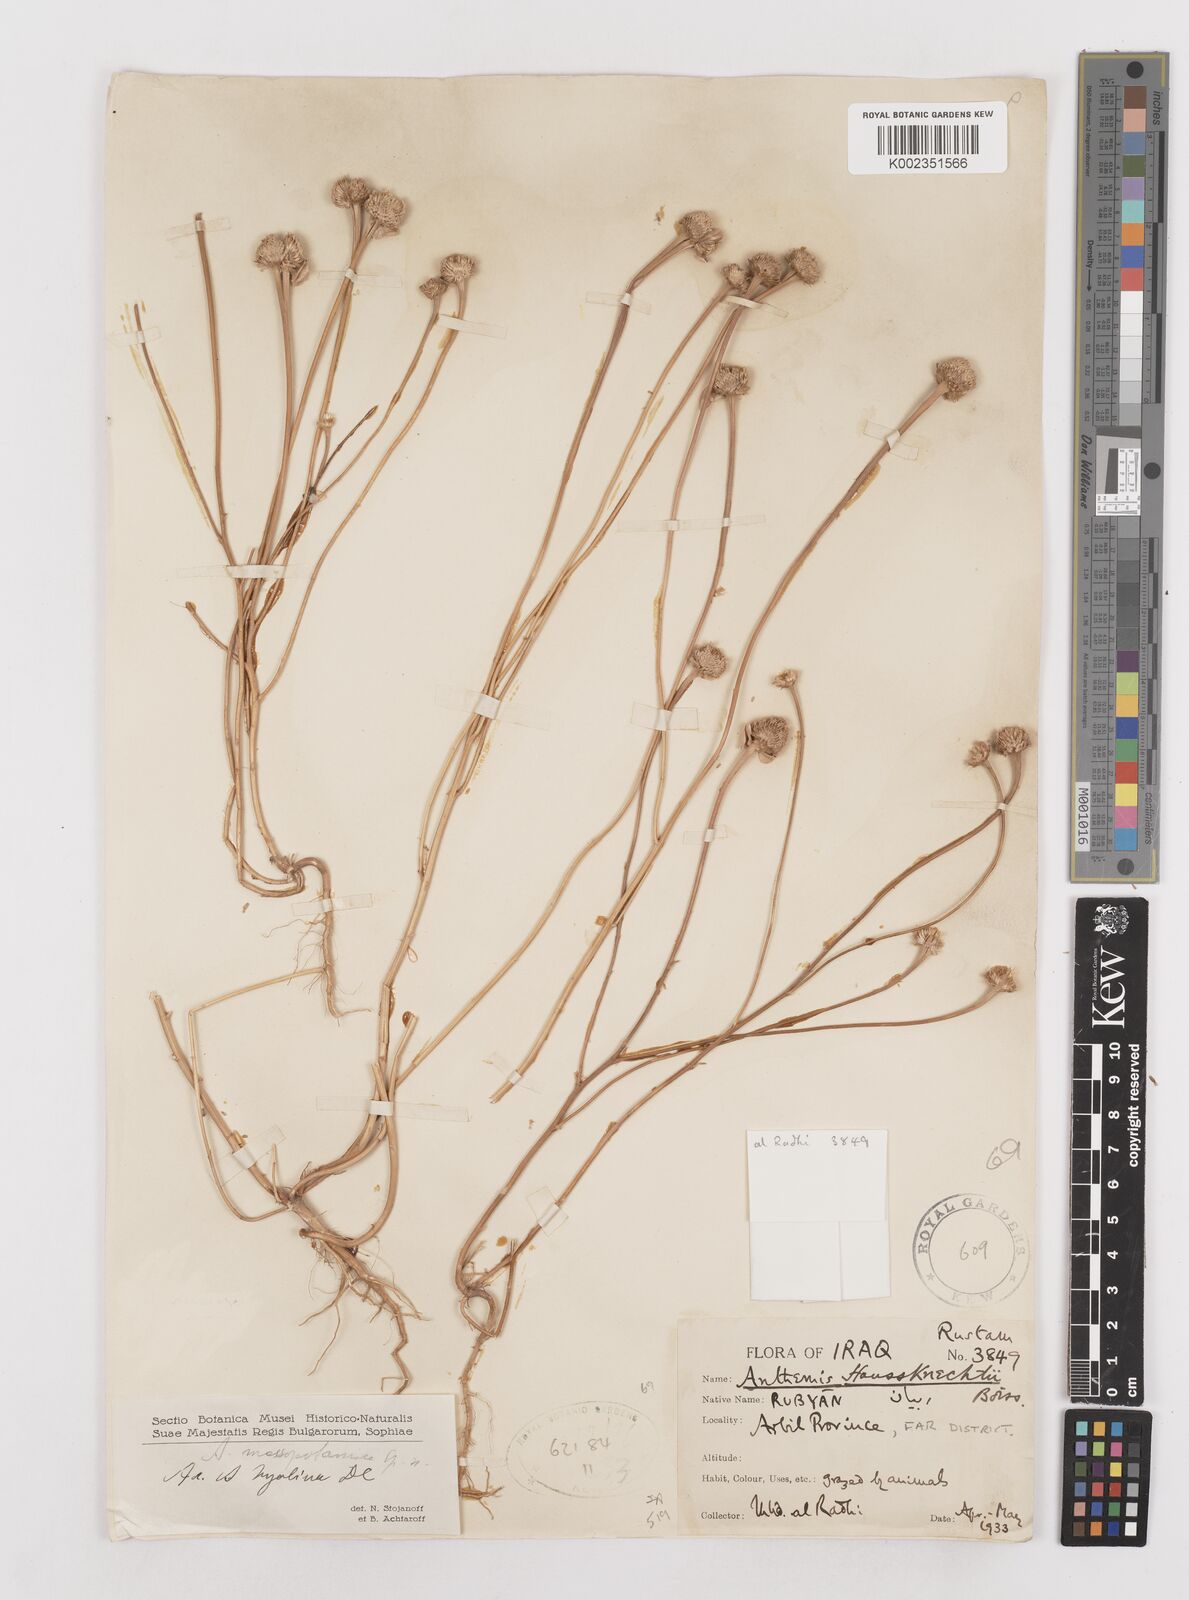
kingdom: Plantae
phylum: Tracheophyta
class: Magnoliopsida
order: Asterales
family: Asteraceae
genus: Anthemis
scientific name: Anthemis haussknechtii
